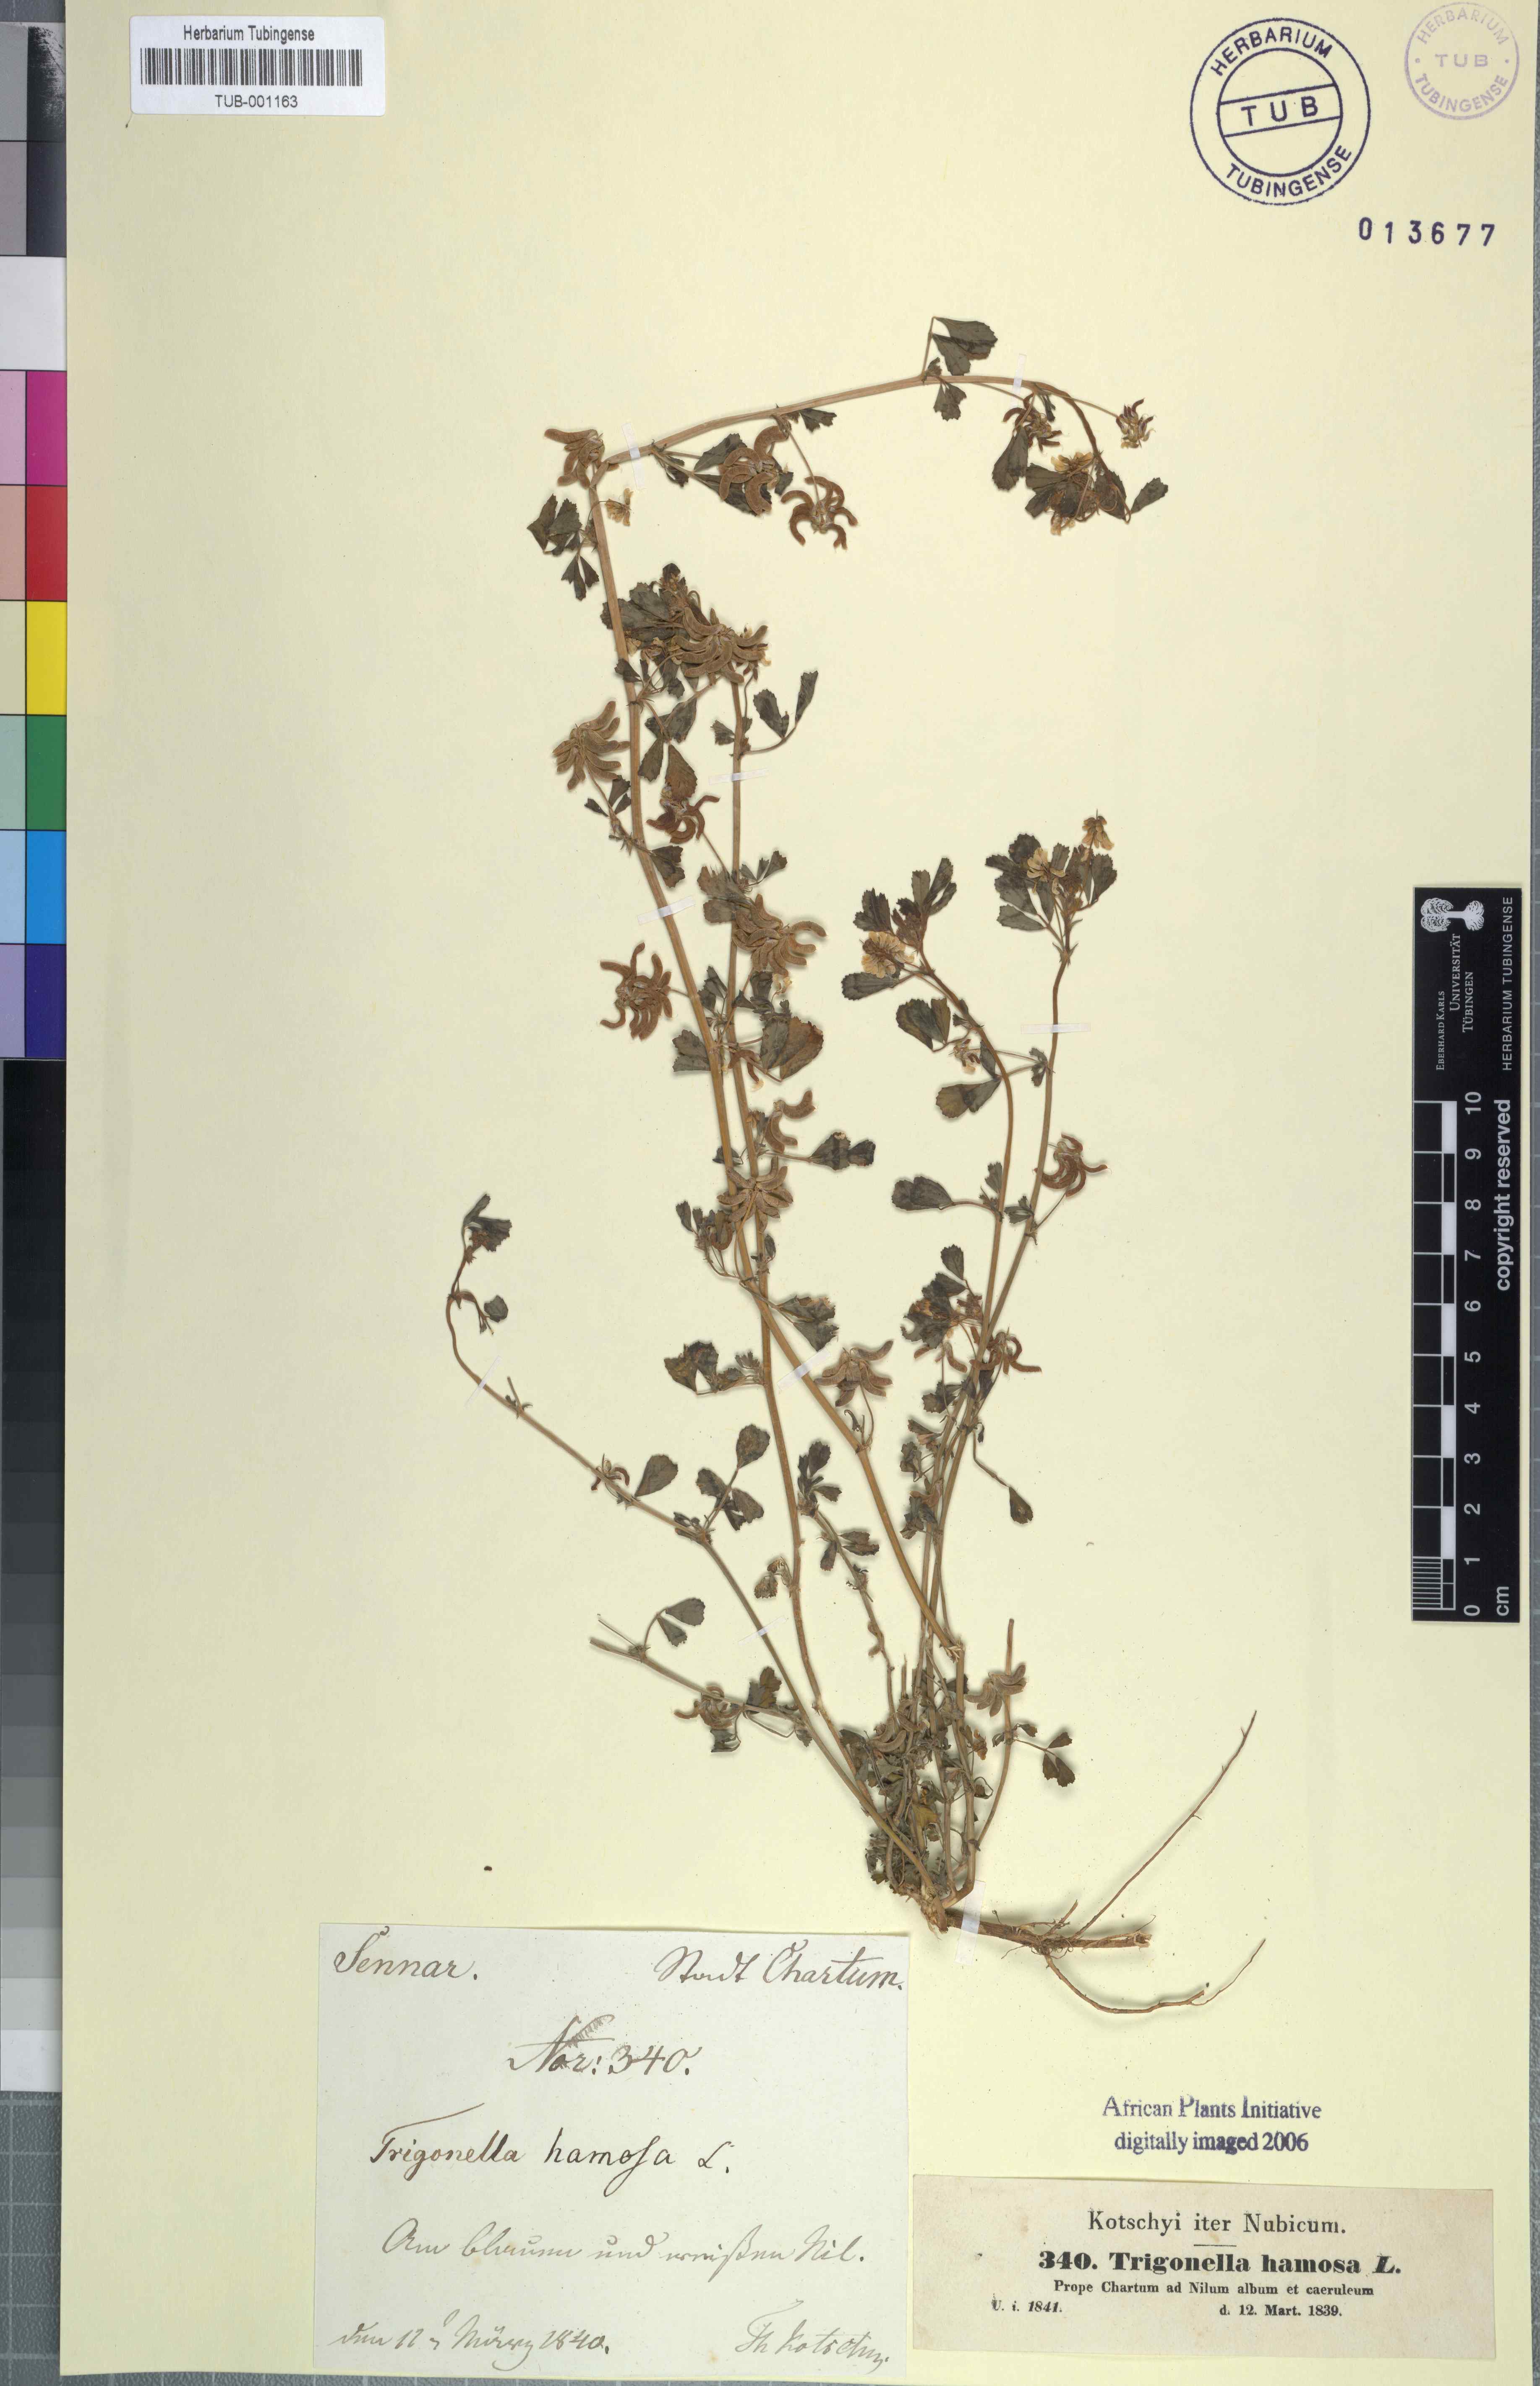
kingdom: Plantae
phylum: Tracheophyta
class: Magnoliopsida
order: Fabales
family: Fabaceae
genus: Trigonella
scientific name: Trigonella glabra
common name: Egyptian fenugreek
